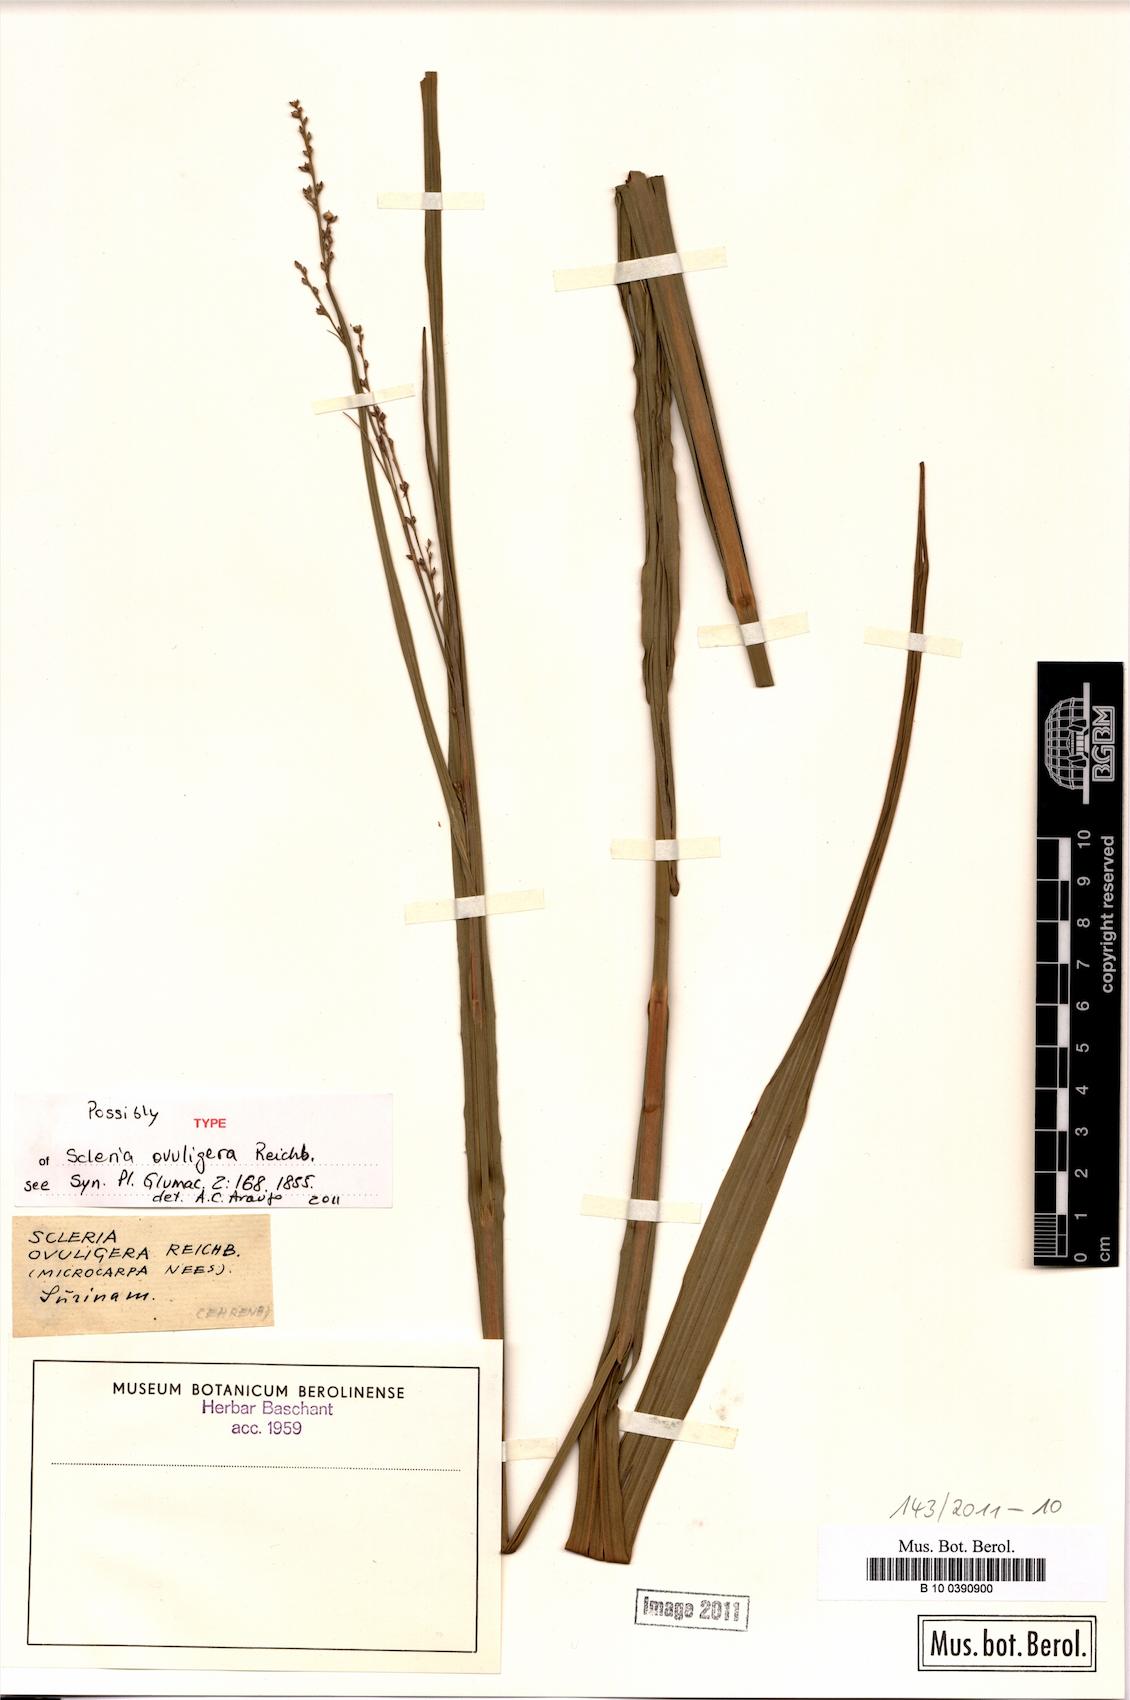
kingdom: Plantae
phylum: Tracheophyta
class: Liliopsida
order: Poales
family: Cyperaceae
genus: Scleria
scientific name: Scleria
